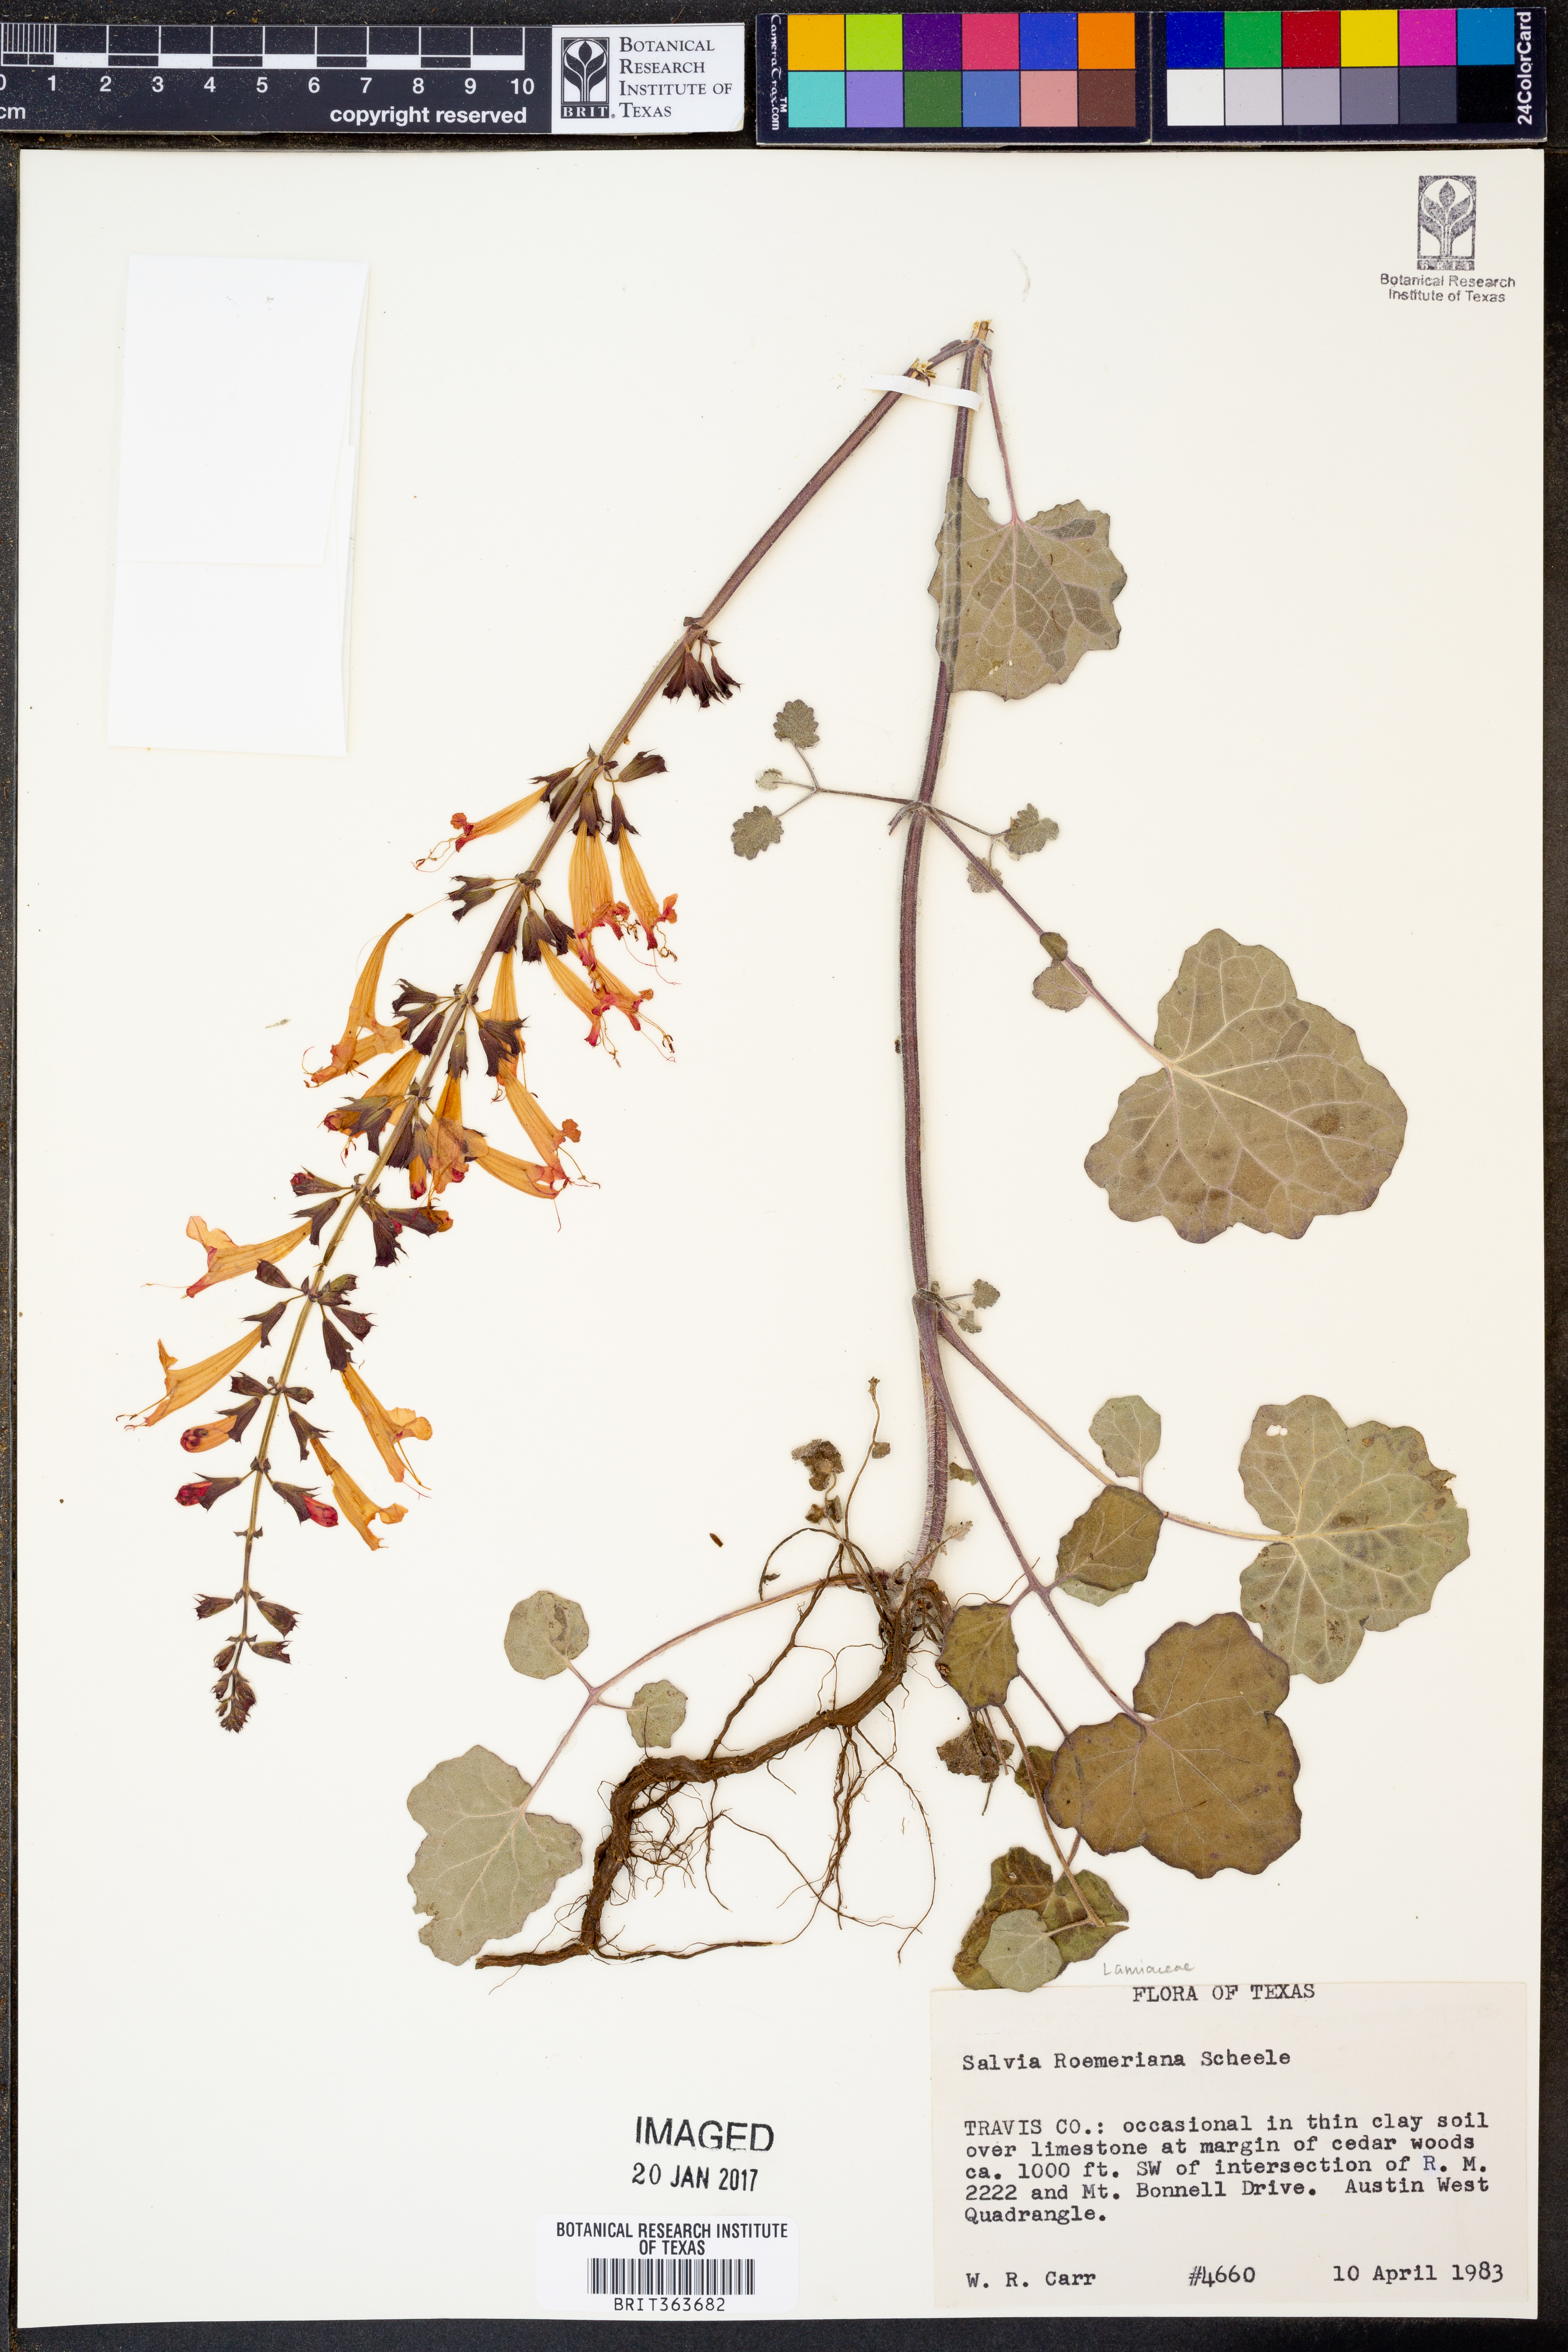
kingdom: Plantae
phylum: Tracheophyta
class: Magnoliopsida
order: Lamiales
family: Lamiaceae
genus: Salvia
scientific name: Salvia roemeriana
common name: Cedar sage
